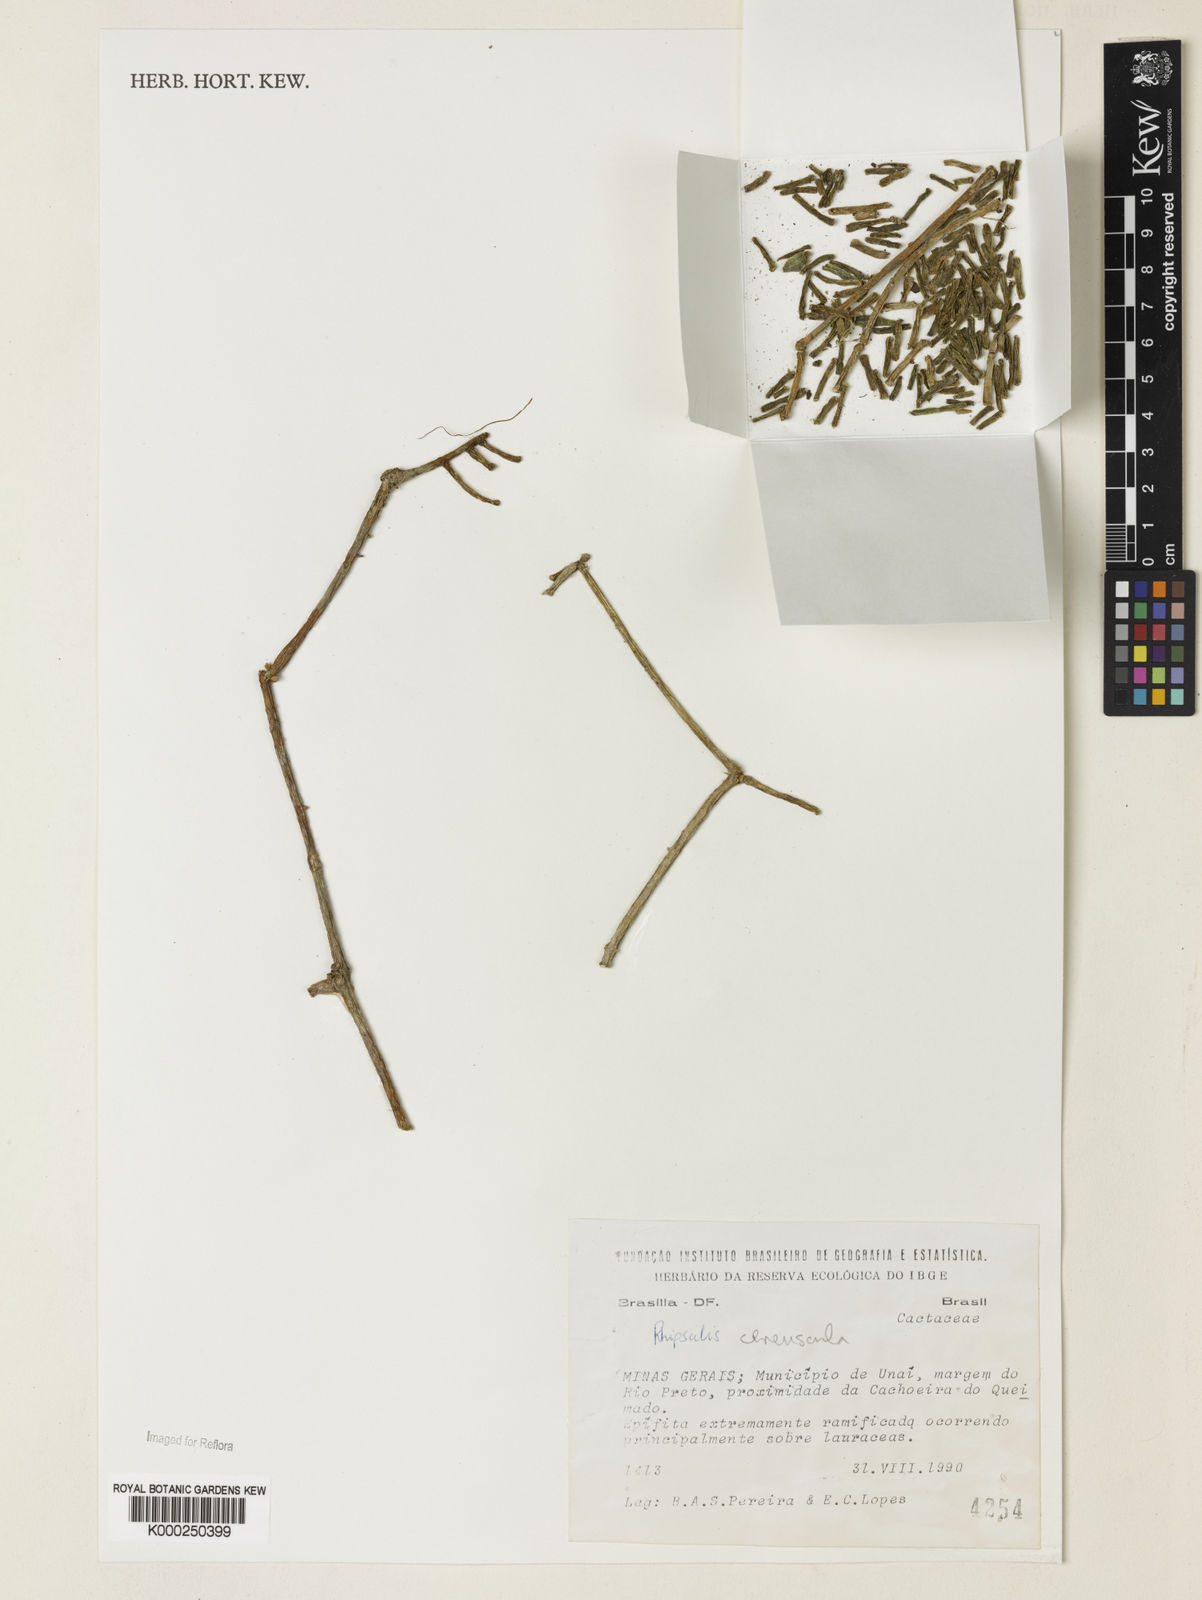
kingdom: Plantae
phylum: Tracheophyta
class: Magnoliopsida
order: Caryophyllales
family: Cactaceae
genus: Rhipsalis
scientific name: Rhipsalis
